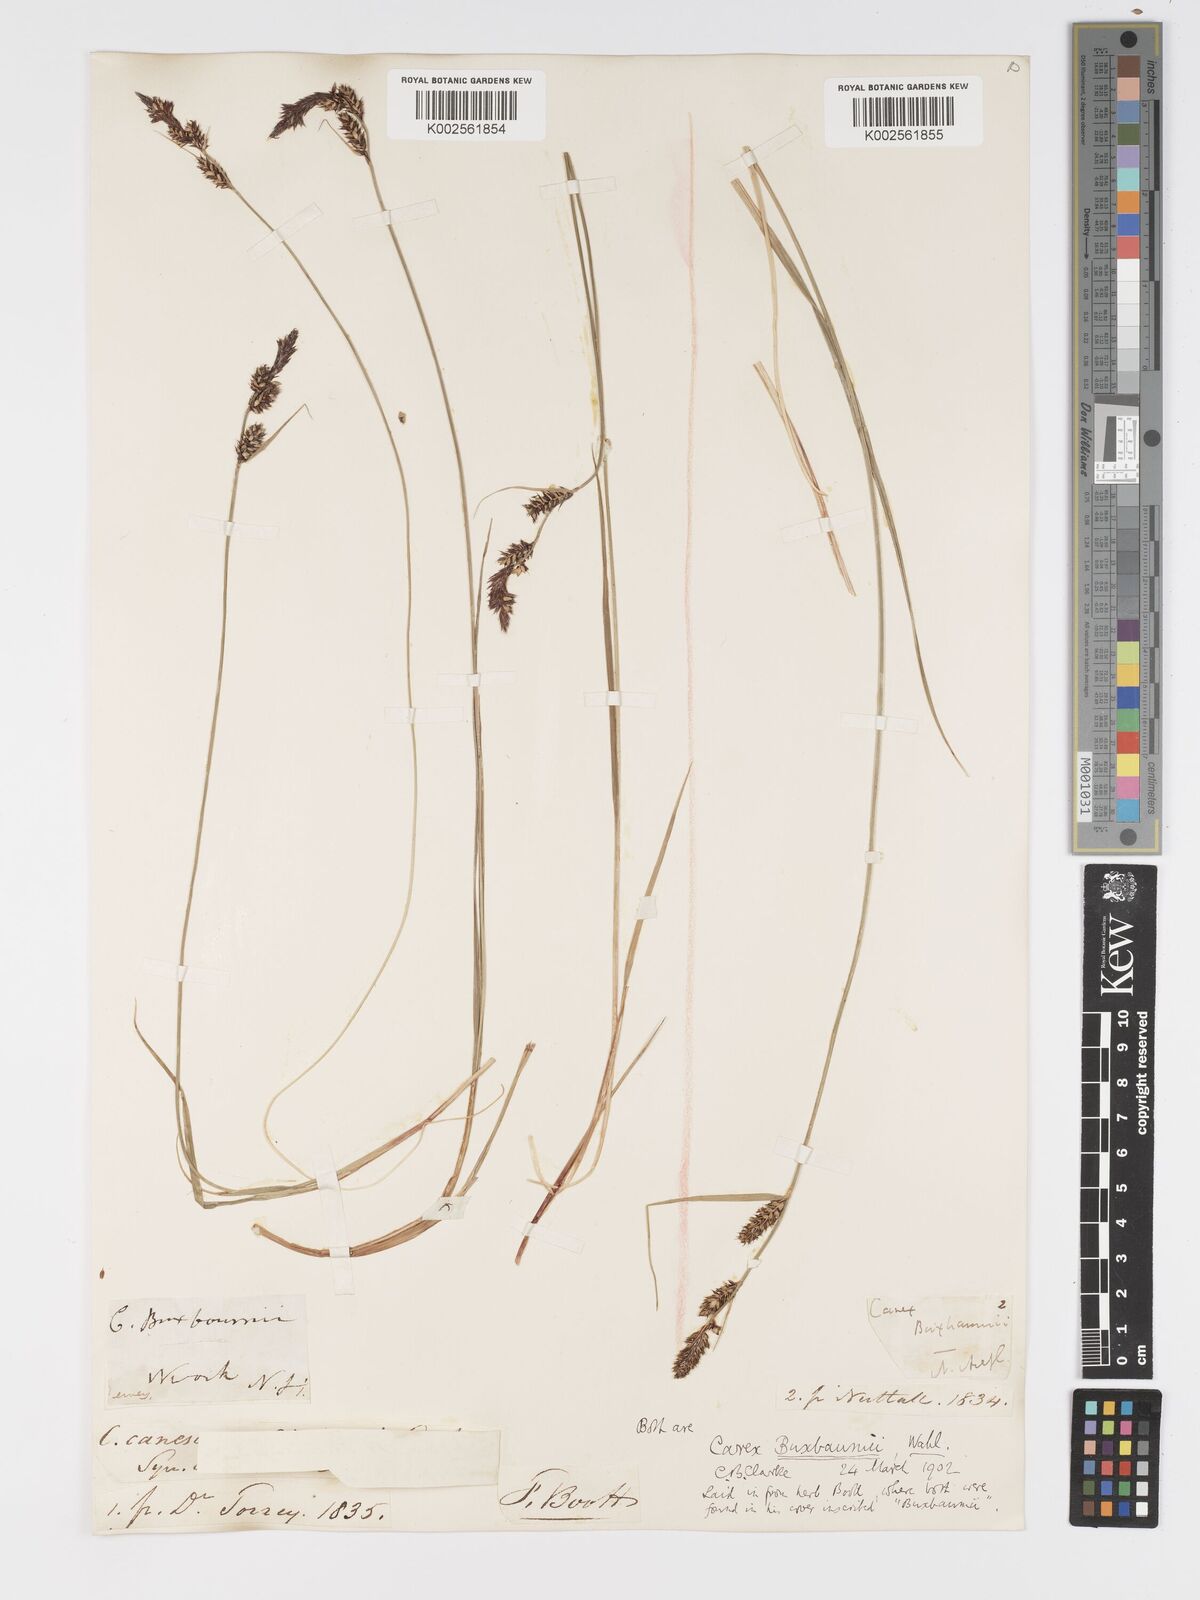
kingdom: Plantae
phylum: Tracheophyta
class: Liliopsida
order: Poales
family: Cyperaceae
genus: Carex
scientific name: Carex buxbaumii
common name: Club sedge
